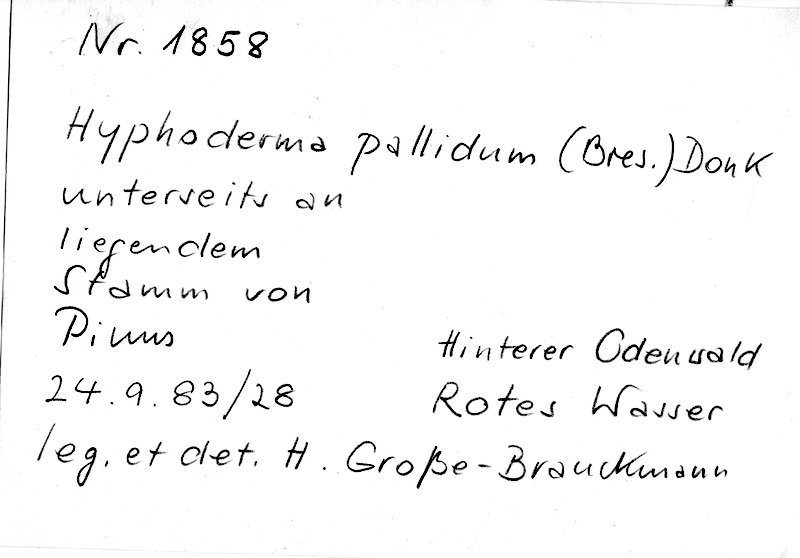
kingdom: Plantae
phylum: Tracheophyta
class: Pinopsida
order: Pinales
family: Pinaceae
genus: Pinus
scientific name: Pinus
